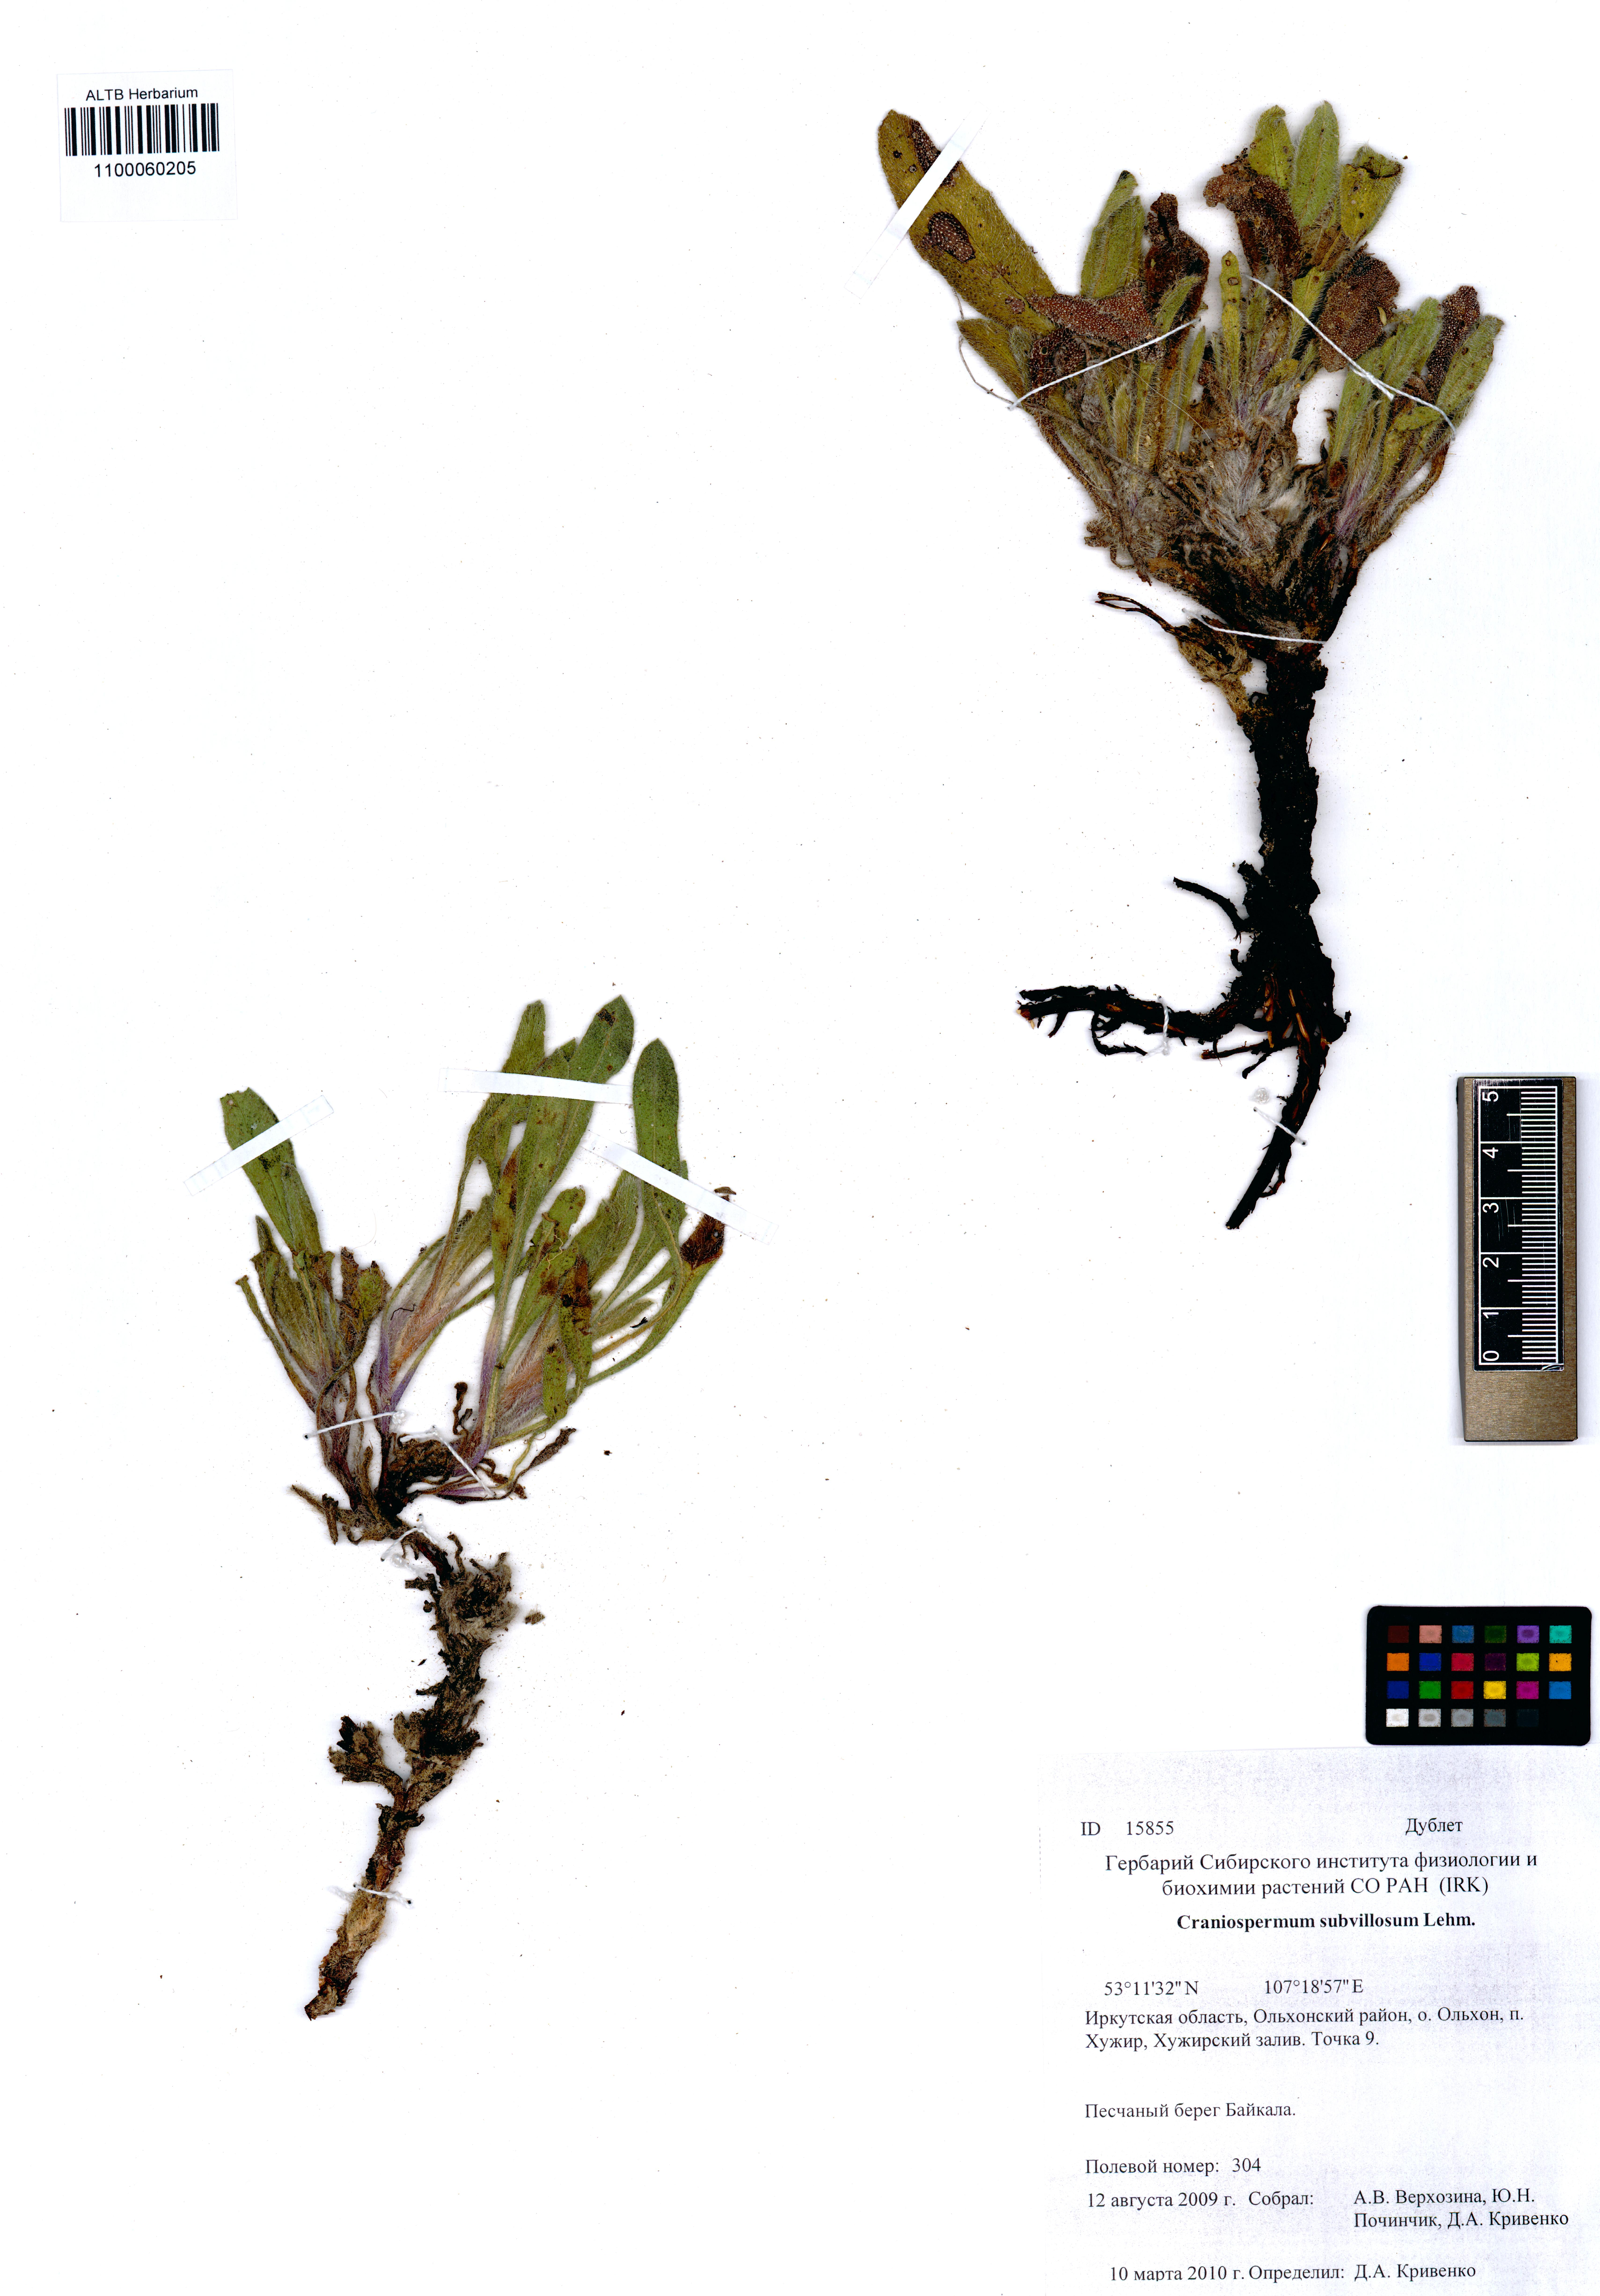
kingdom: Plantae
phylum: Tracheophyta
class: Magnoliopsida
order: Boraginales
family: Boraginaceae
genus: Craniospermum
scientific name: Craniospermum subvillosum
